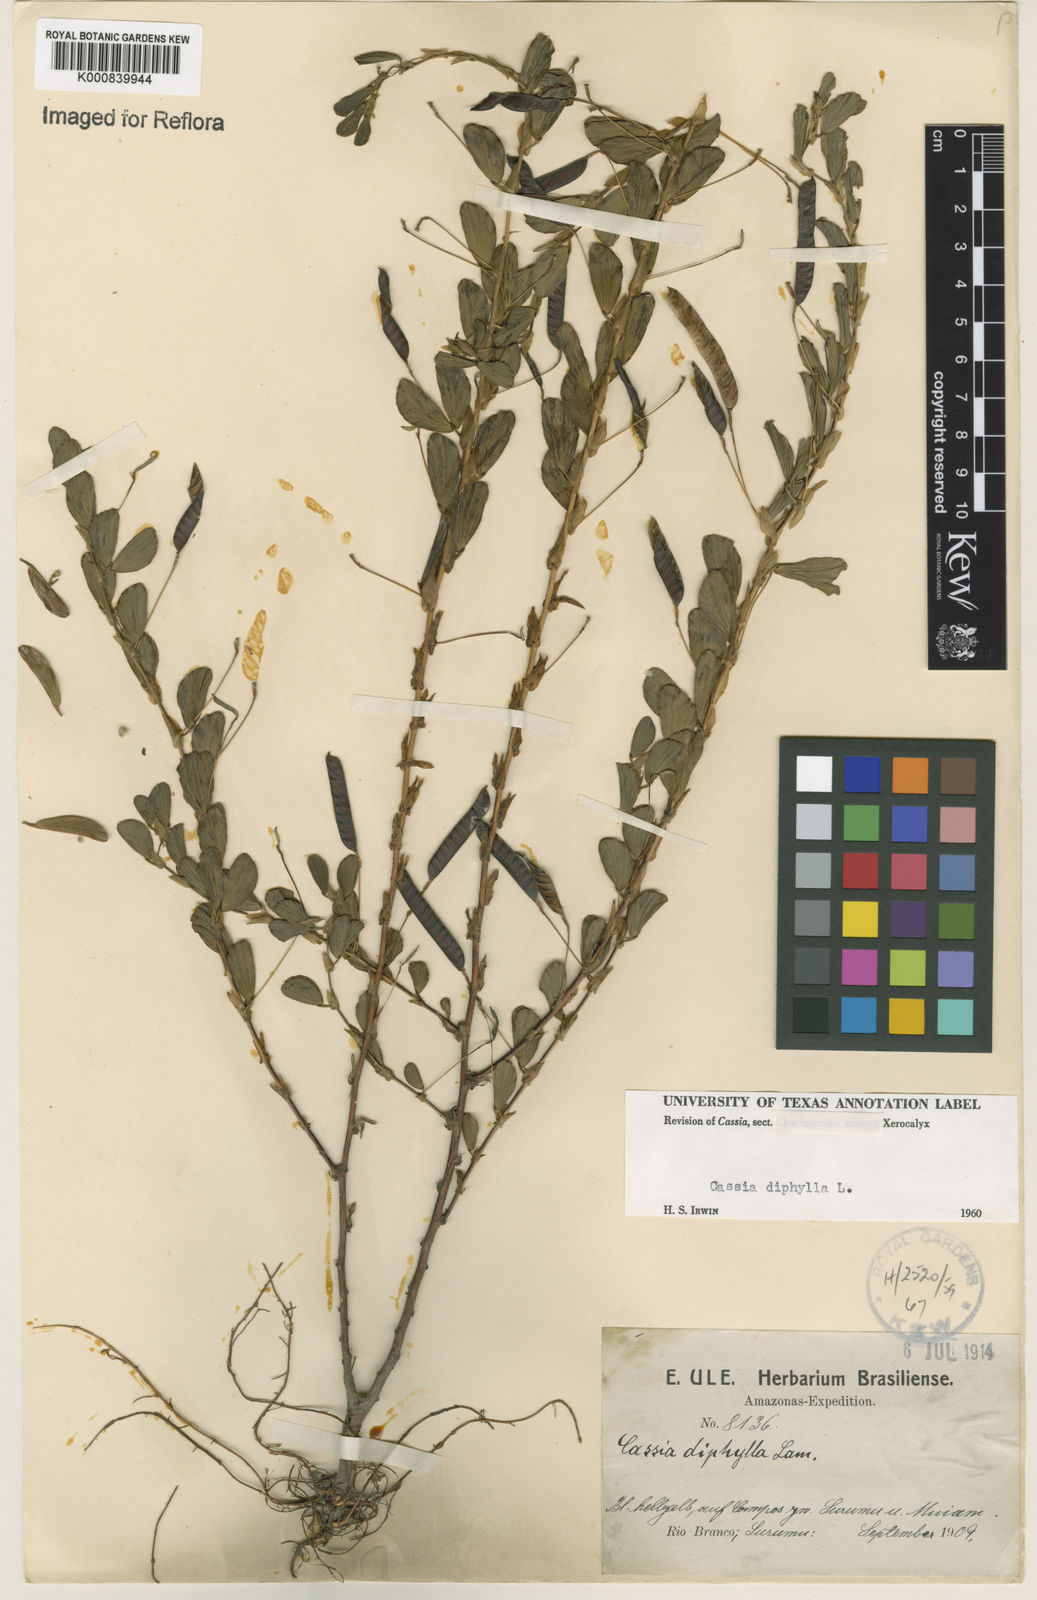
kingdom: Plantae
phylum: Tracheophyta
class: Magnoliopsida
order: Fabales
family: Fabaceae
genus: Chamaecrista
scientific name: Chamaecrista diphylla
